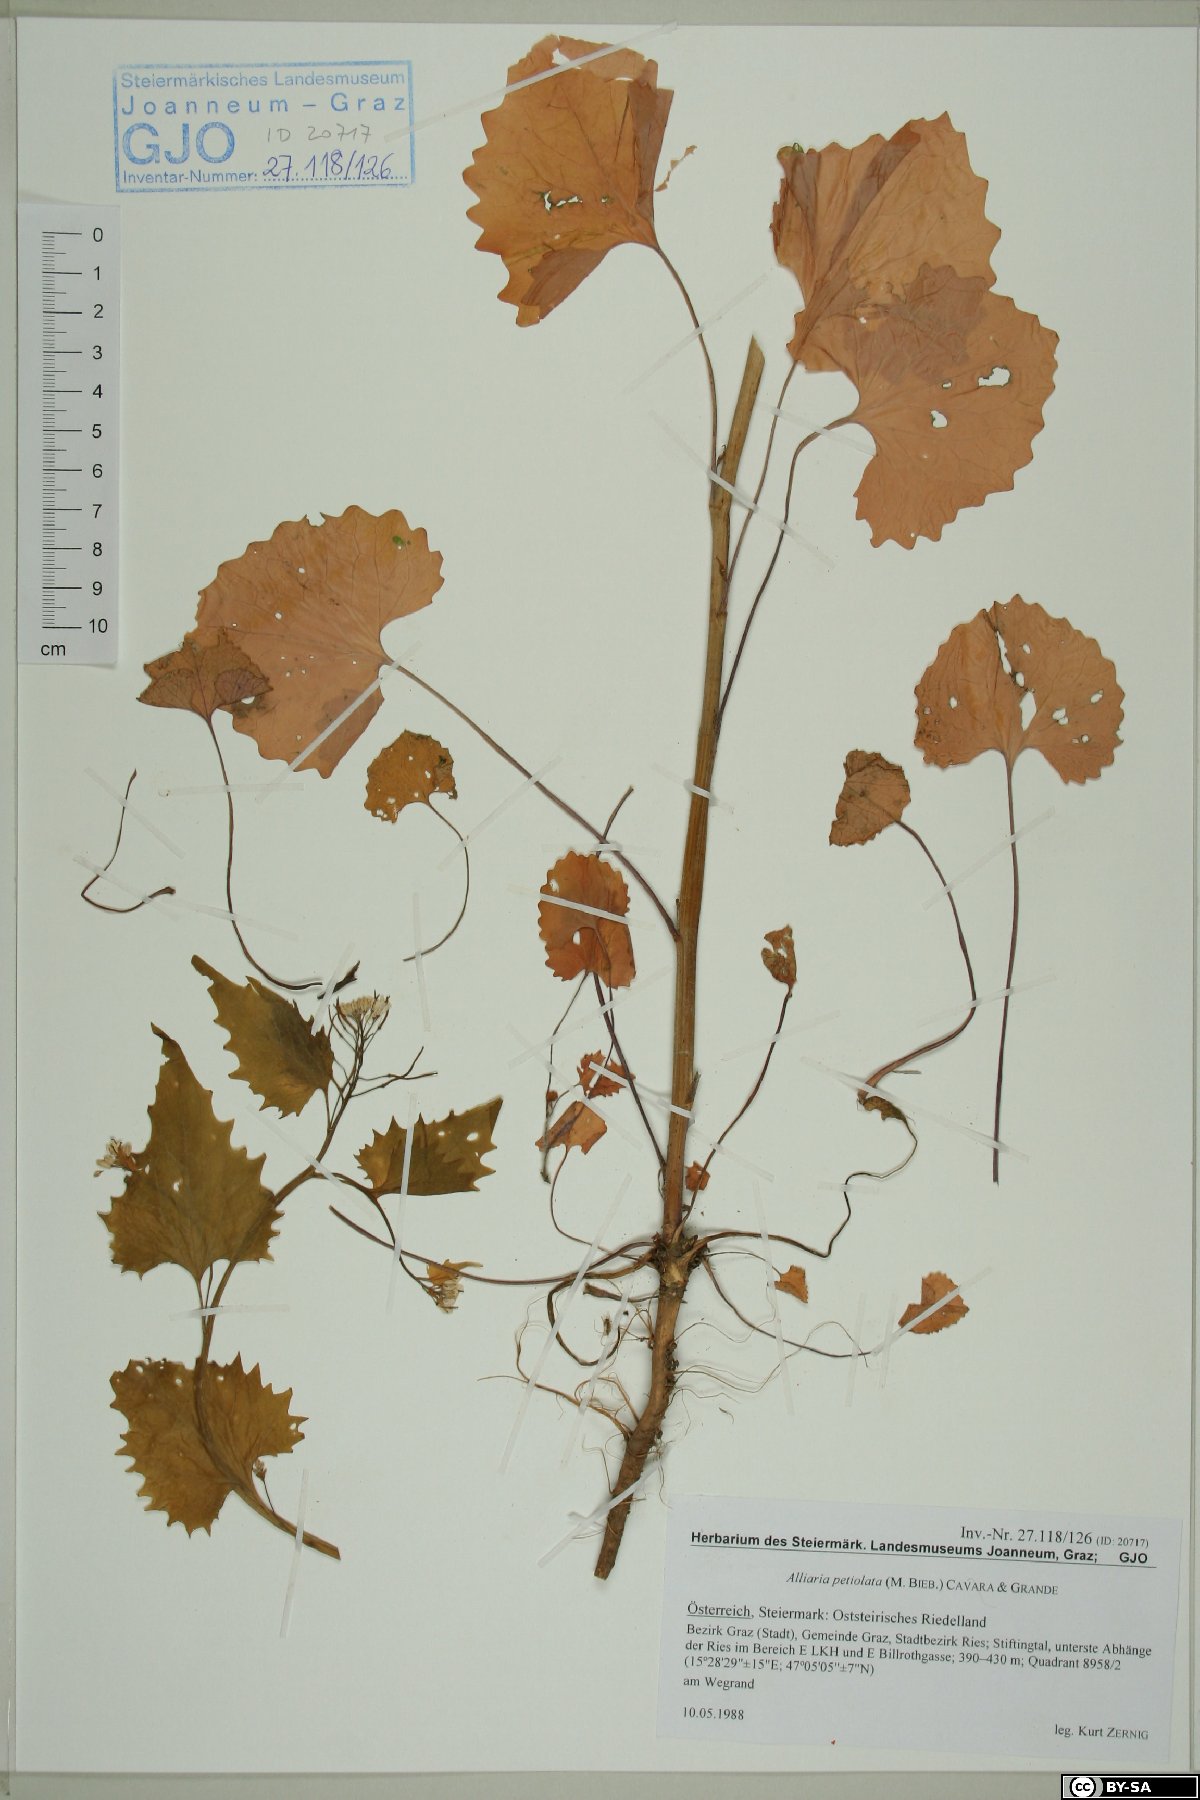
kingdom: Plantae
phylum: Tracheophyta
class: Magnoliopsida
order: Brassicales
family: Brassicaceae
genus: Alliaria
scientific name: Alliaria petiolata
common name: Garlic mustard
